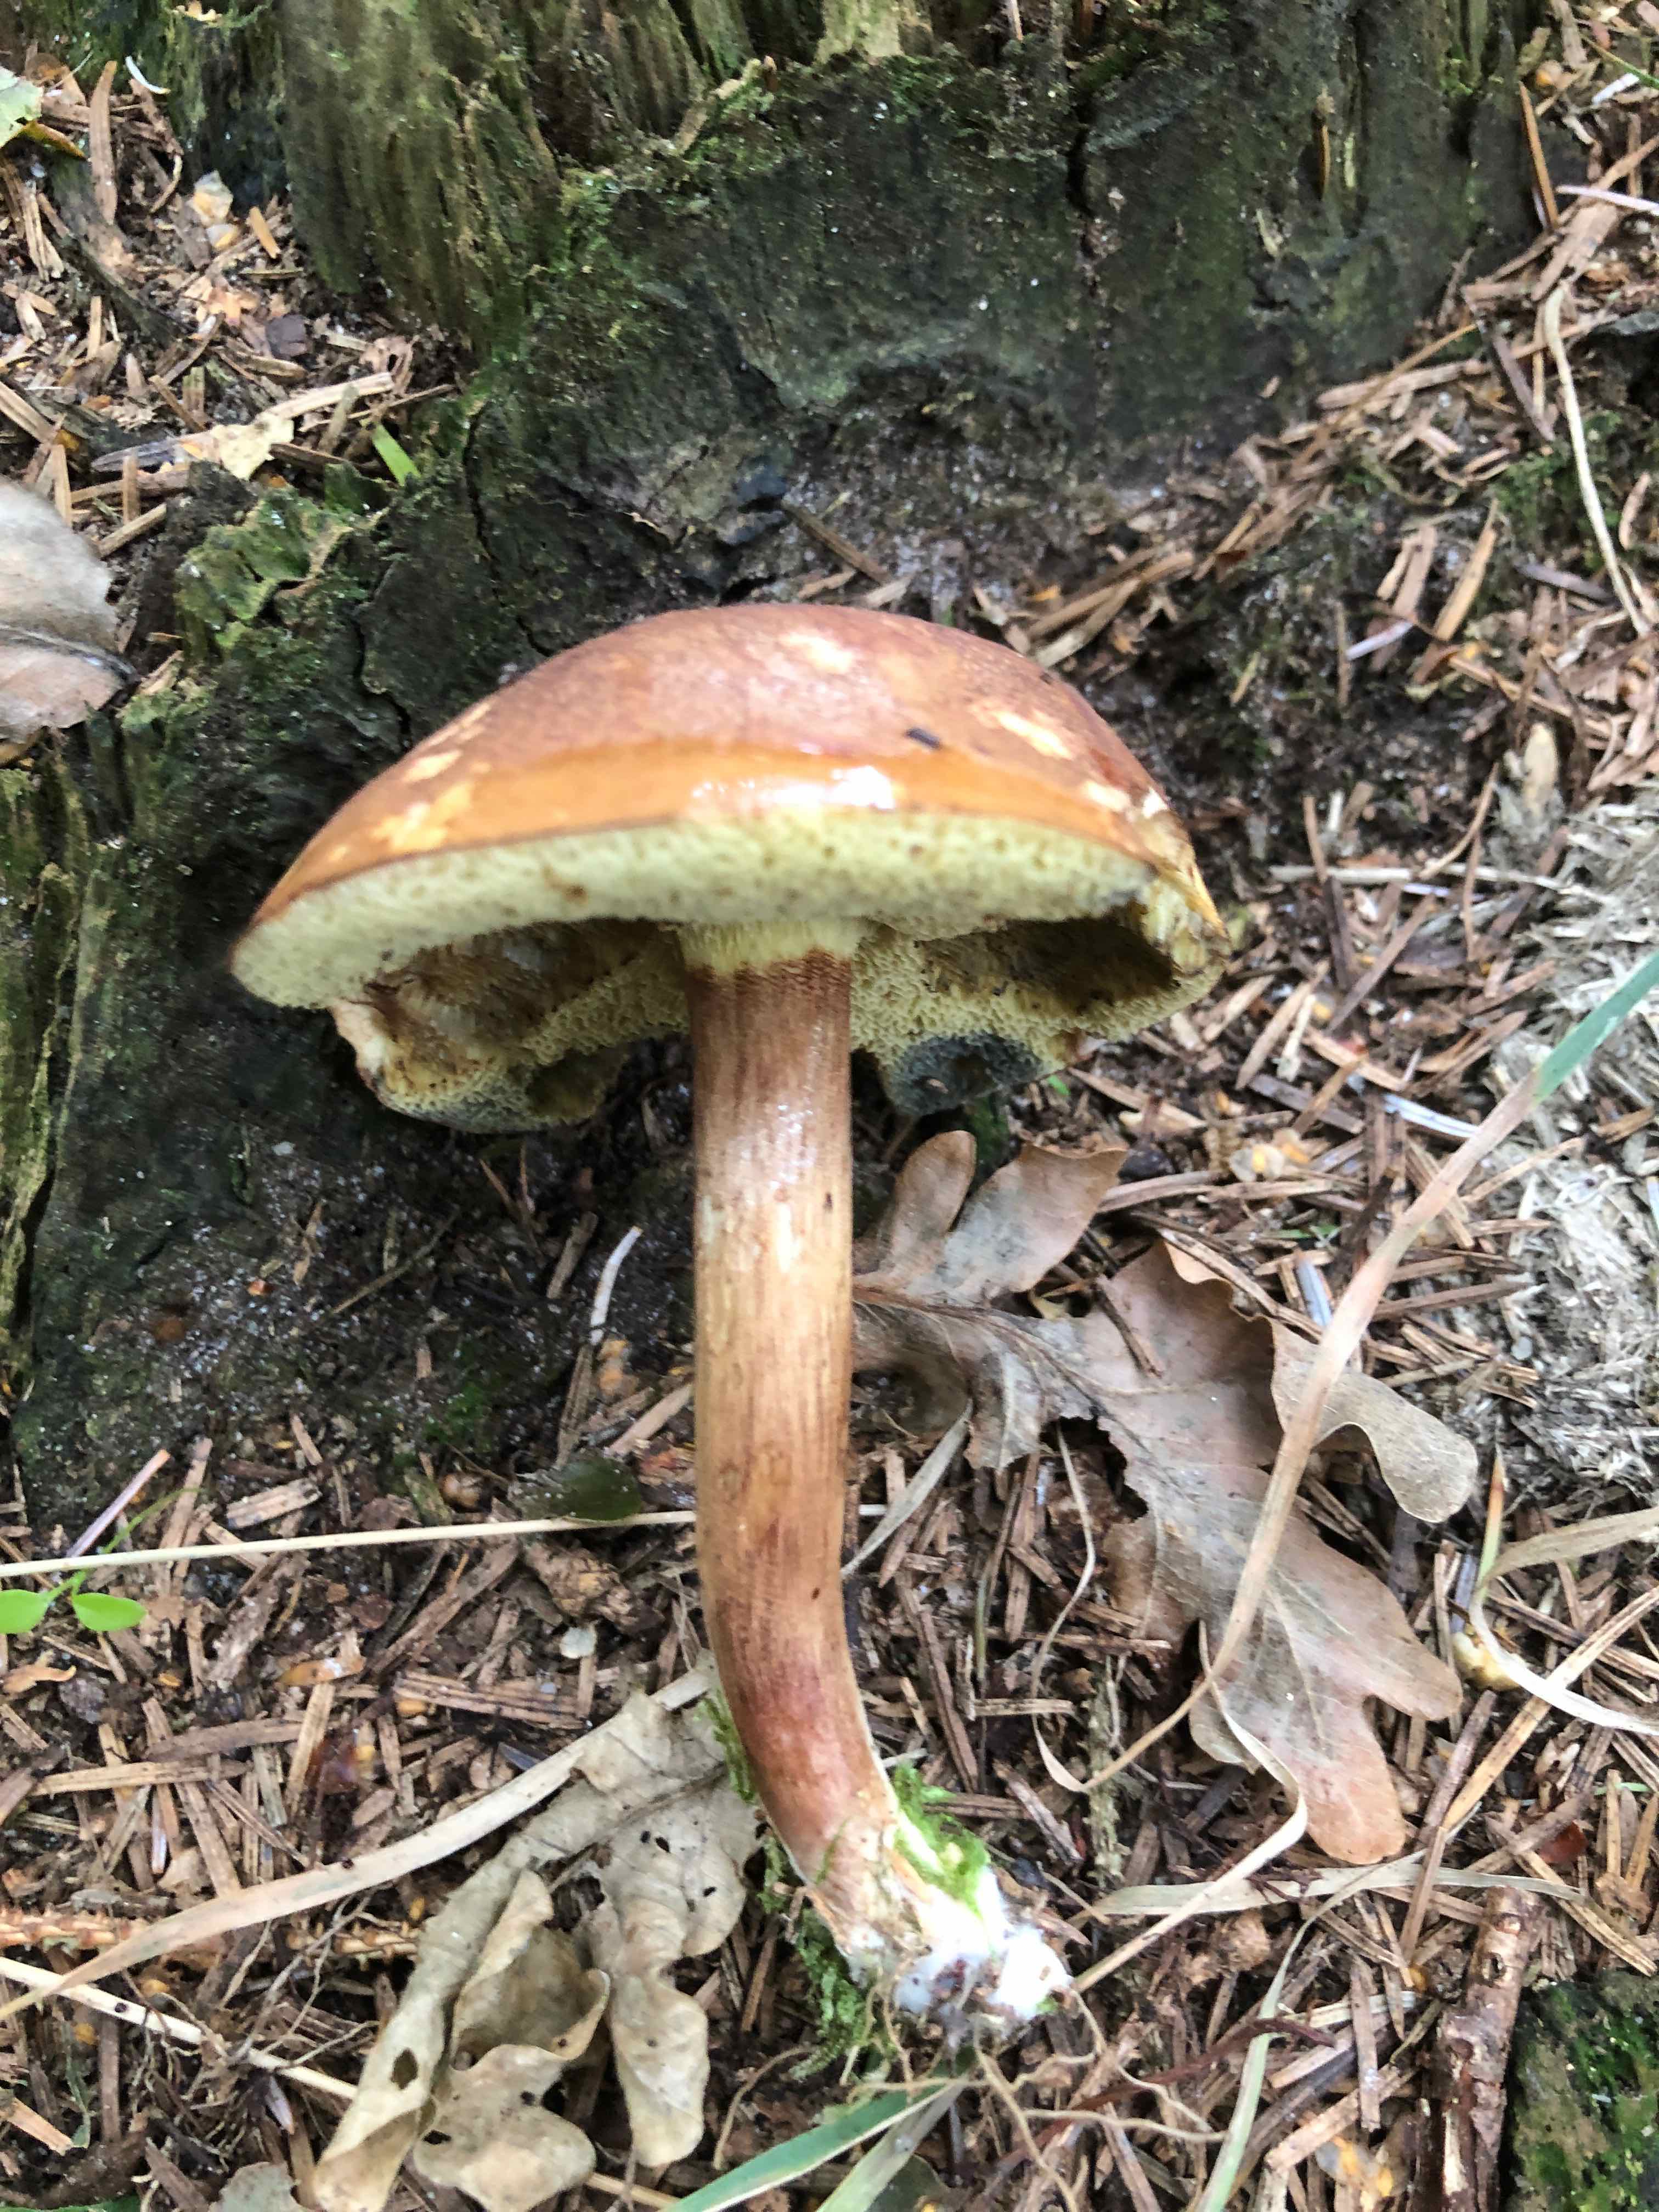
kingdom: Fungi
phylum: Basidiomycota
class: Agaricomycetes
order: Boletales
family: Boletaceae
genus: Imleria
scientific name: Imleria badia
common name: brunstokket rørhat
